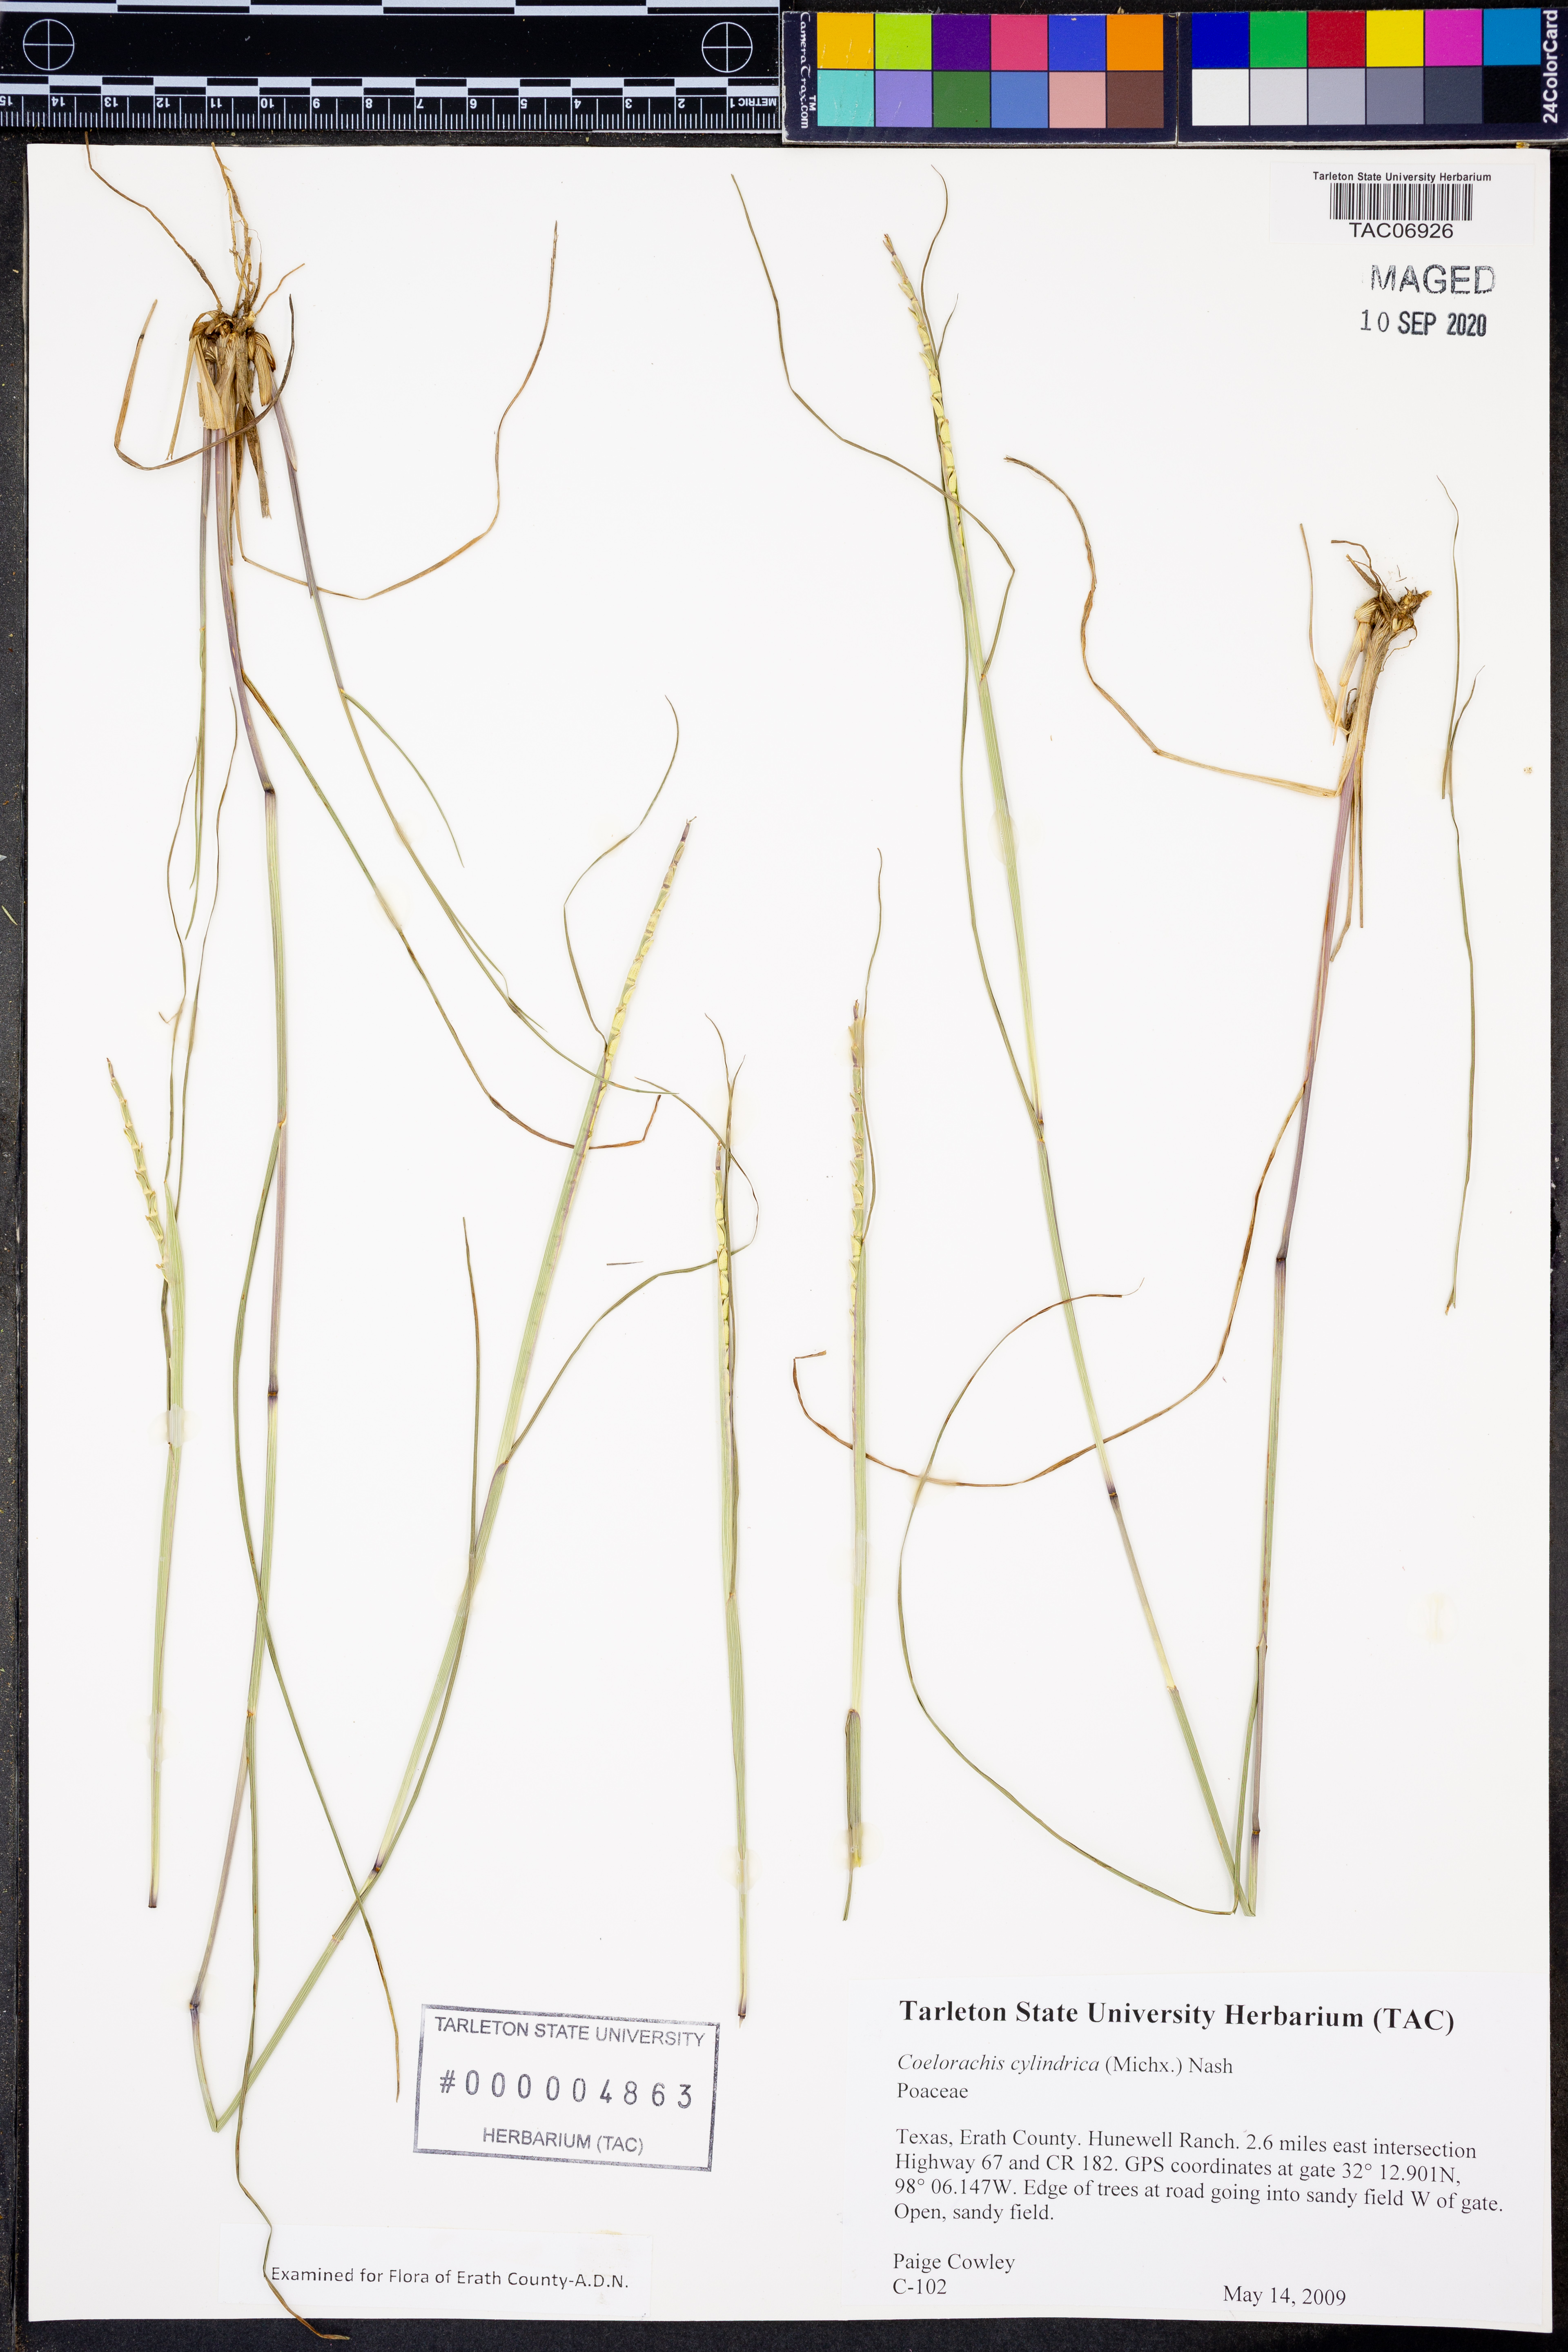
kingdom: Plantae
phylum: Tracheophyta
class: Liliopsida
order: Poales
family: Poaceae
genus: Rottboellia
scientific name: Rottboellia campestris
